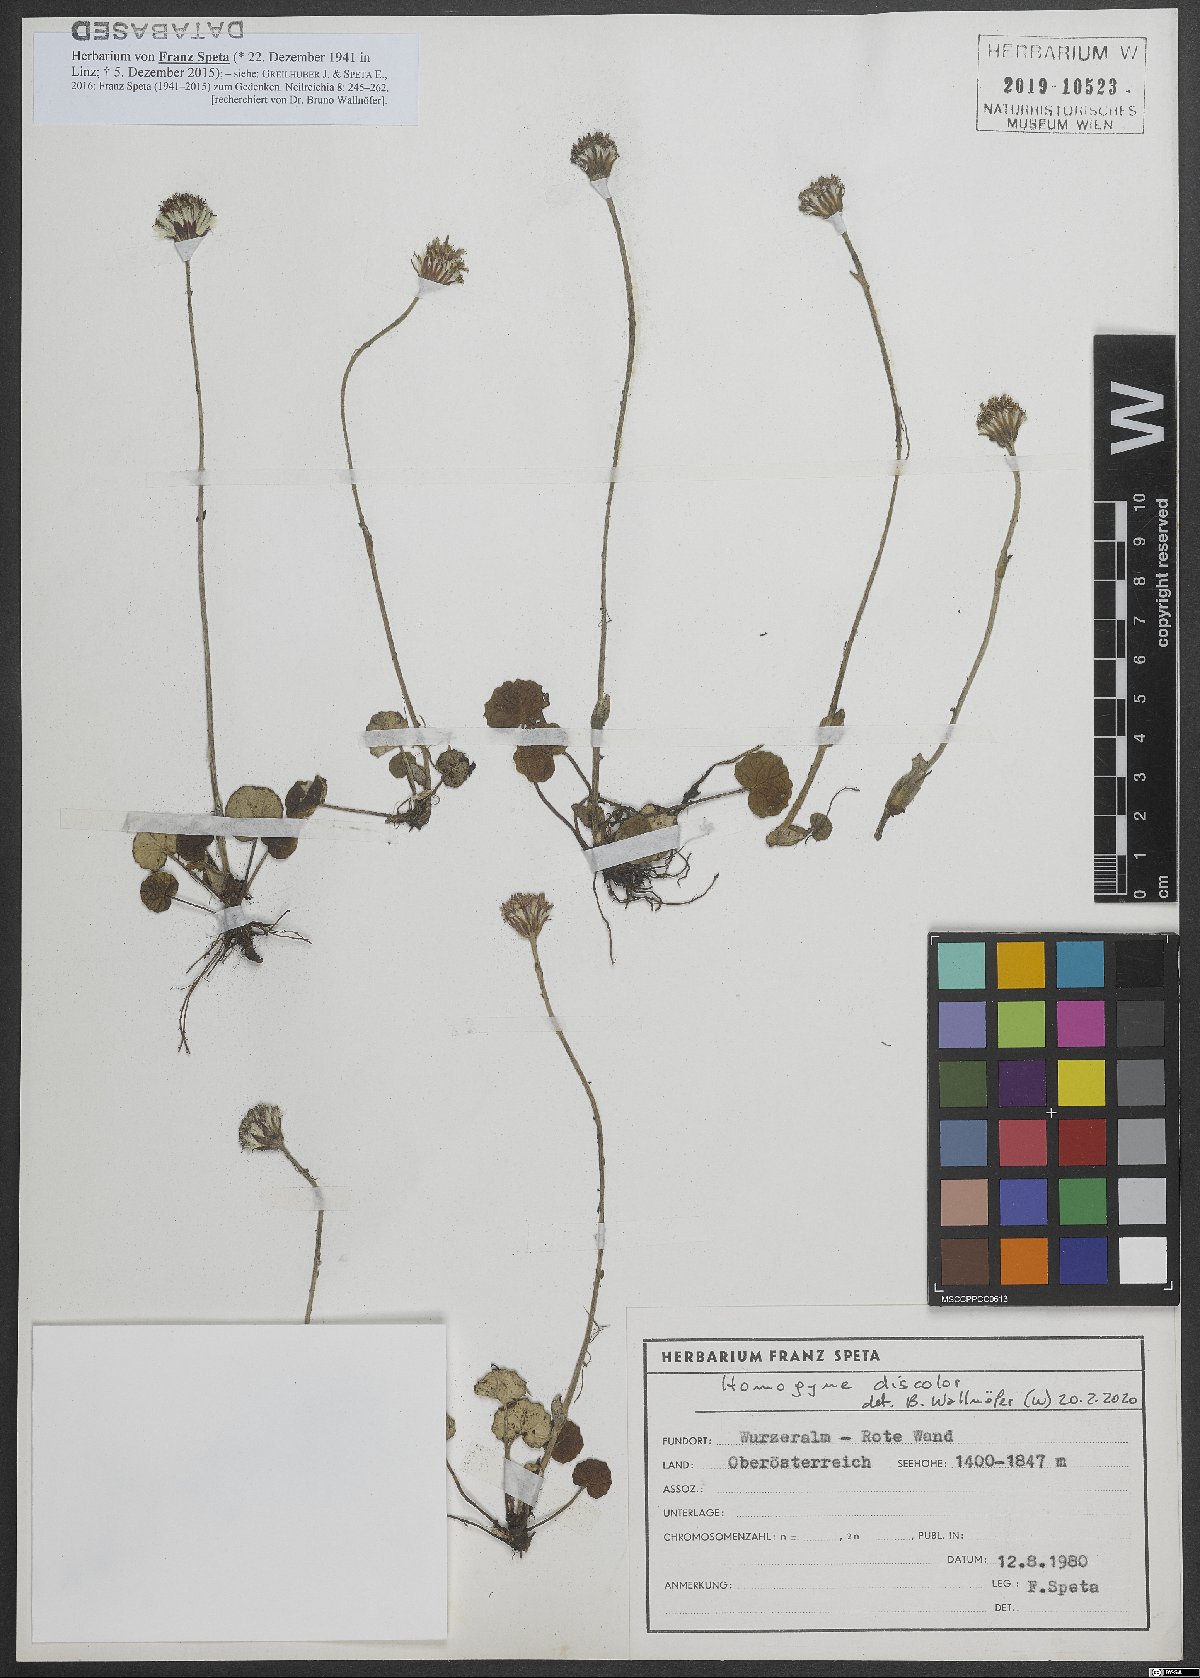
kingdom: Plantae
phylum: Tracheophyta
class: Magnoliopsida
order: Asterales
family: Asteraceae
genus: Homogyne
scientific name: Homogyne discolor
